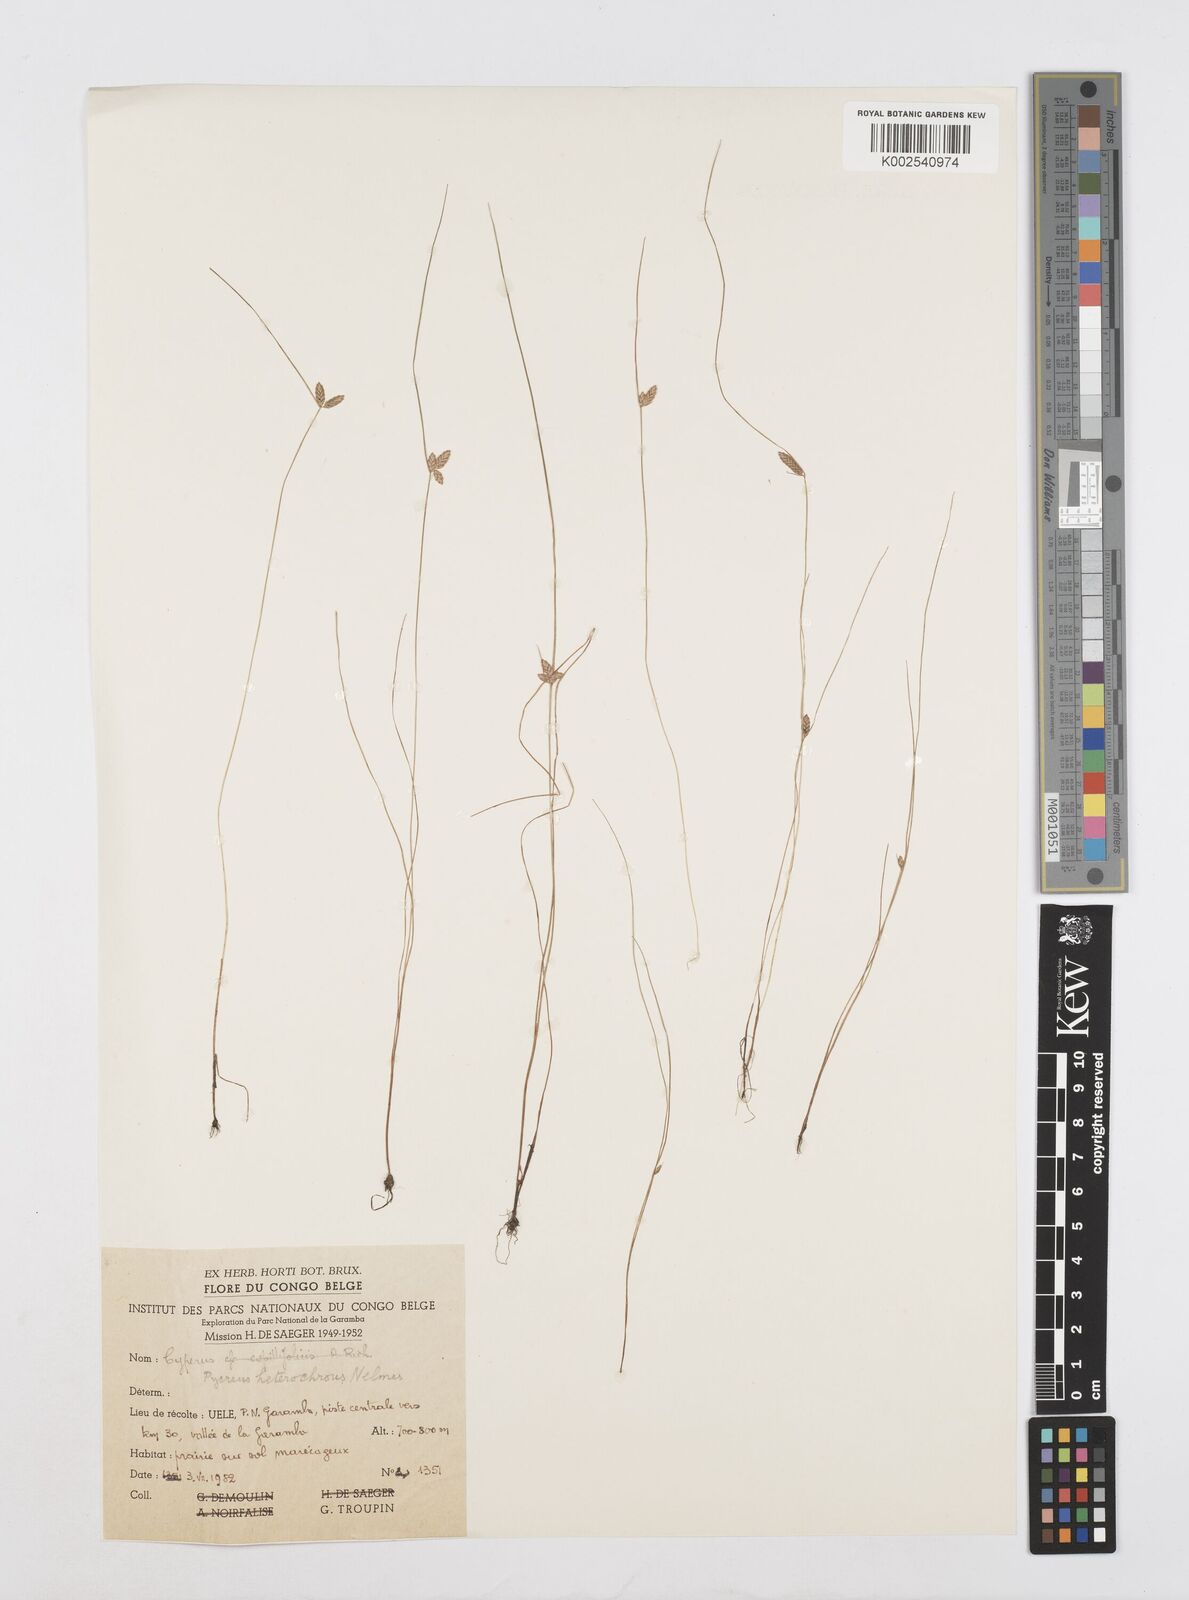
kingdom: Plantae
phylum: Tracheophyta
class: Liliopsida
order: Poales
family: Cyperaceae
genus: Cyperus
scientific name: Cyperus
